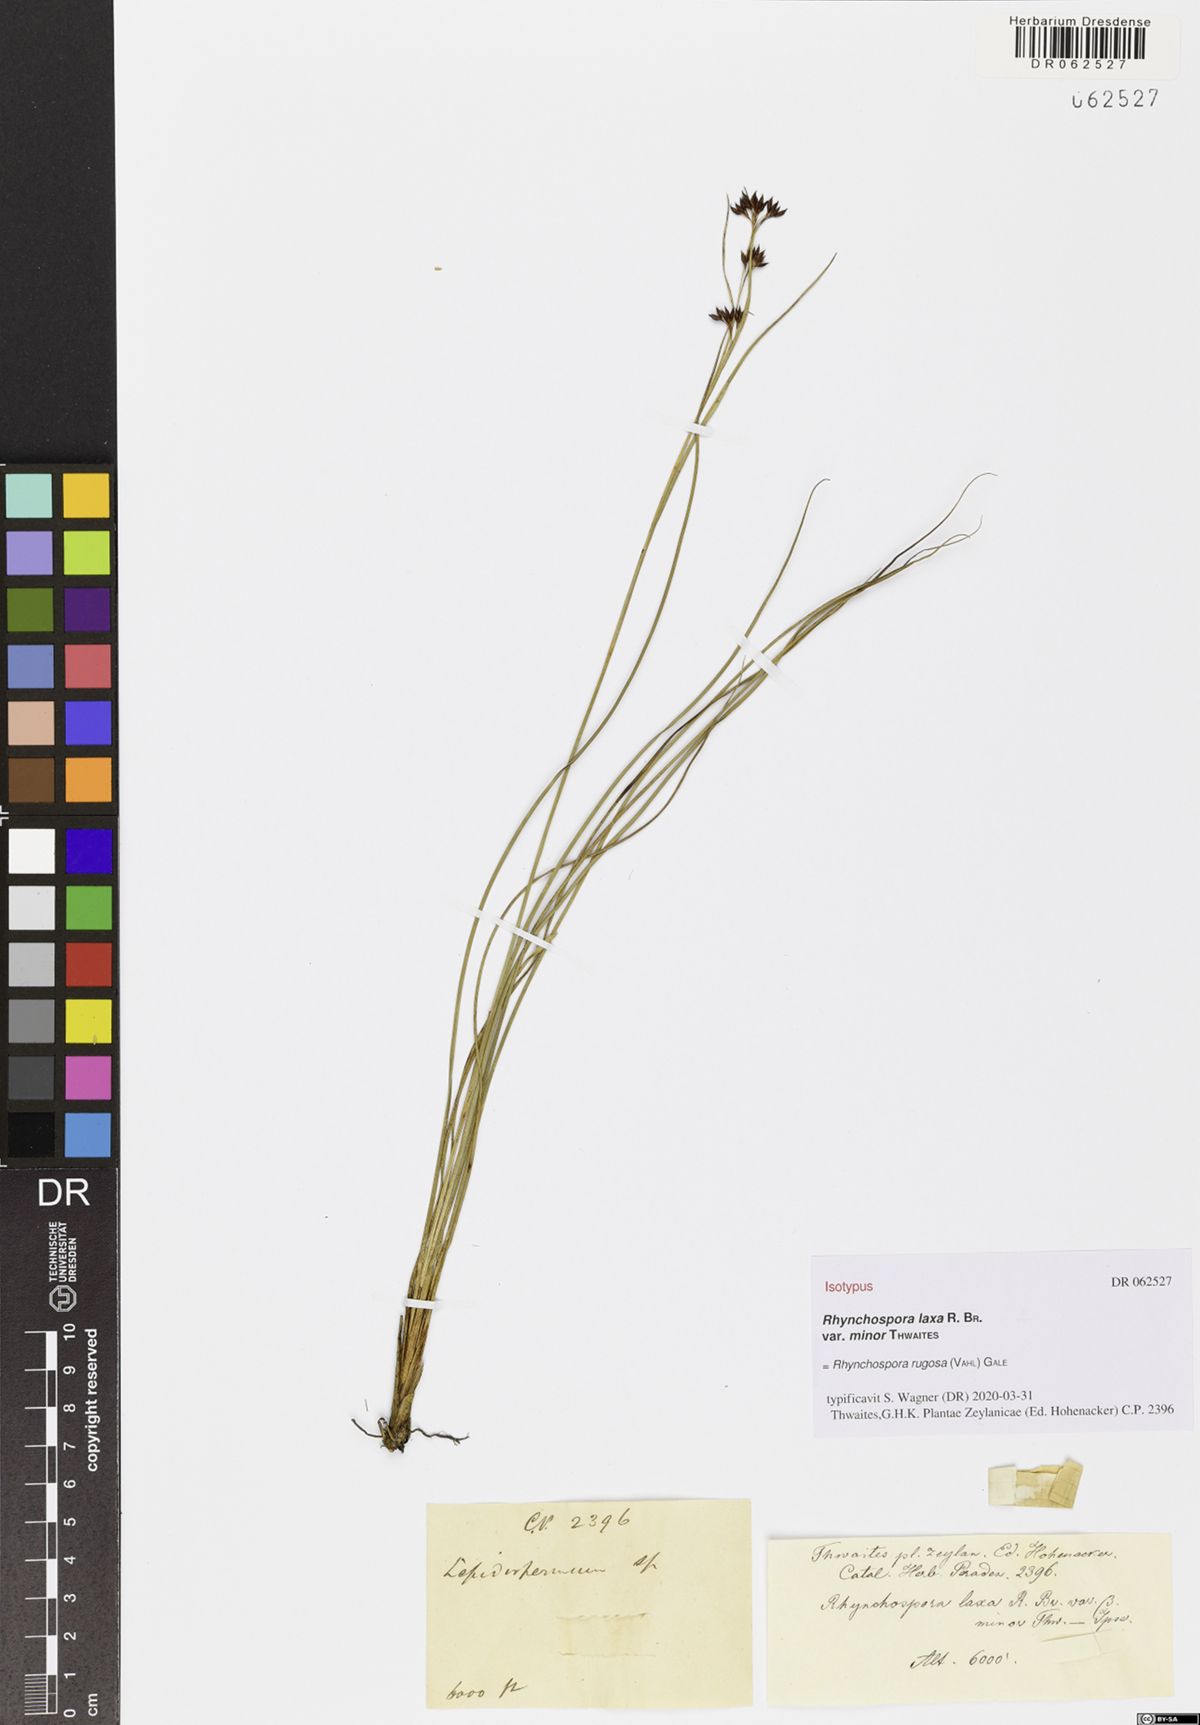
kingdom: Plantae
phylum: Tracheophyta
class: Liliopsida
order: Poales
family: Cyperaceae
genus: Rhynchospora
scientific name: Rhynchospora rugosa
